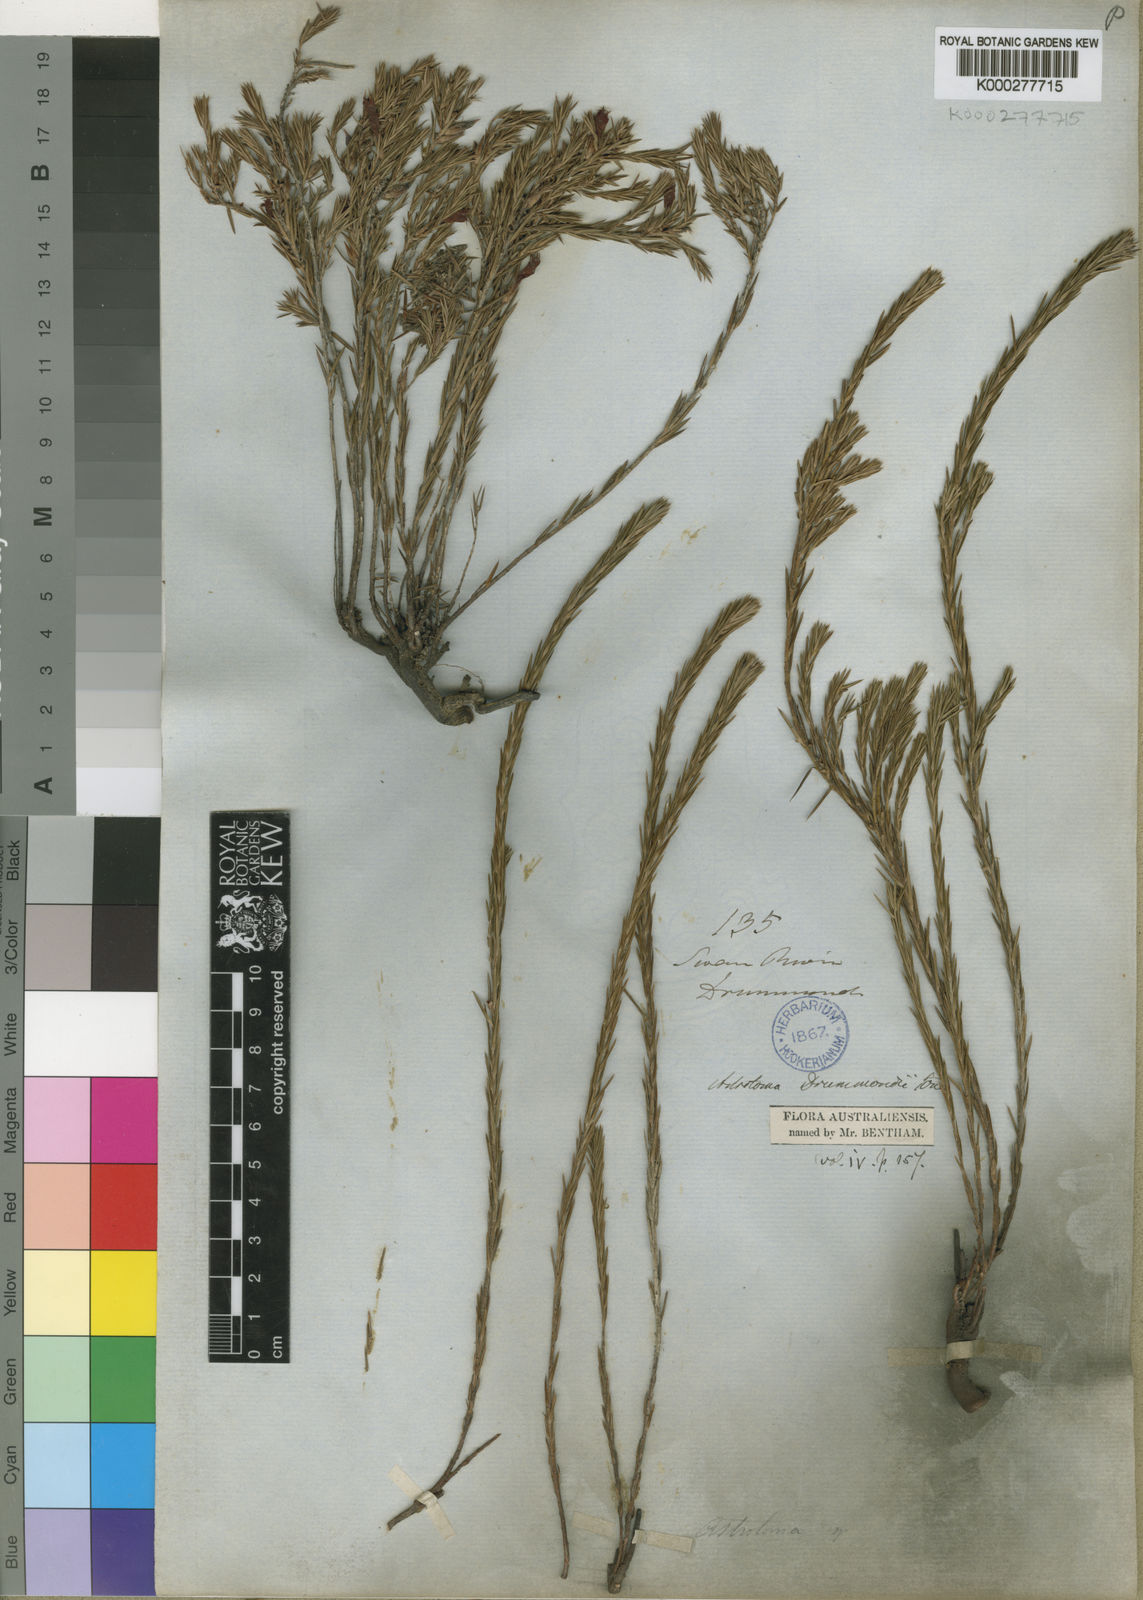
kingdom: Plantae
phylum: Tracheophyta
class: Magnoliopsida
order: Ericales
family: Ericaceae
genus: Styphelia
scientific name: Styphelia epacridis
